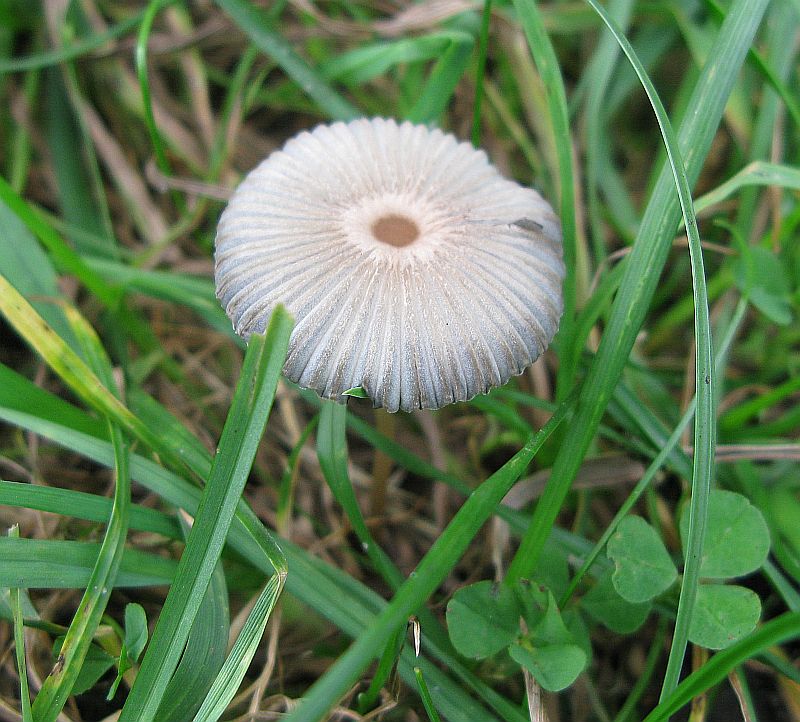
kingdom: Fungi
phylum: Basidiomycota
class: Agaricomycetes
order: Agaricales
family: Psathyrellaceae
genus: Parasola
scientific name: Parasola plicatilis
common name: plæne-hjulhat
